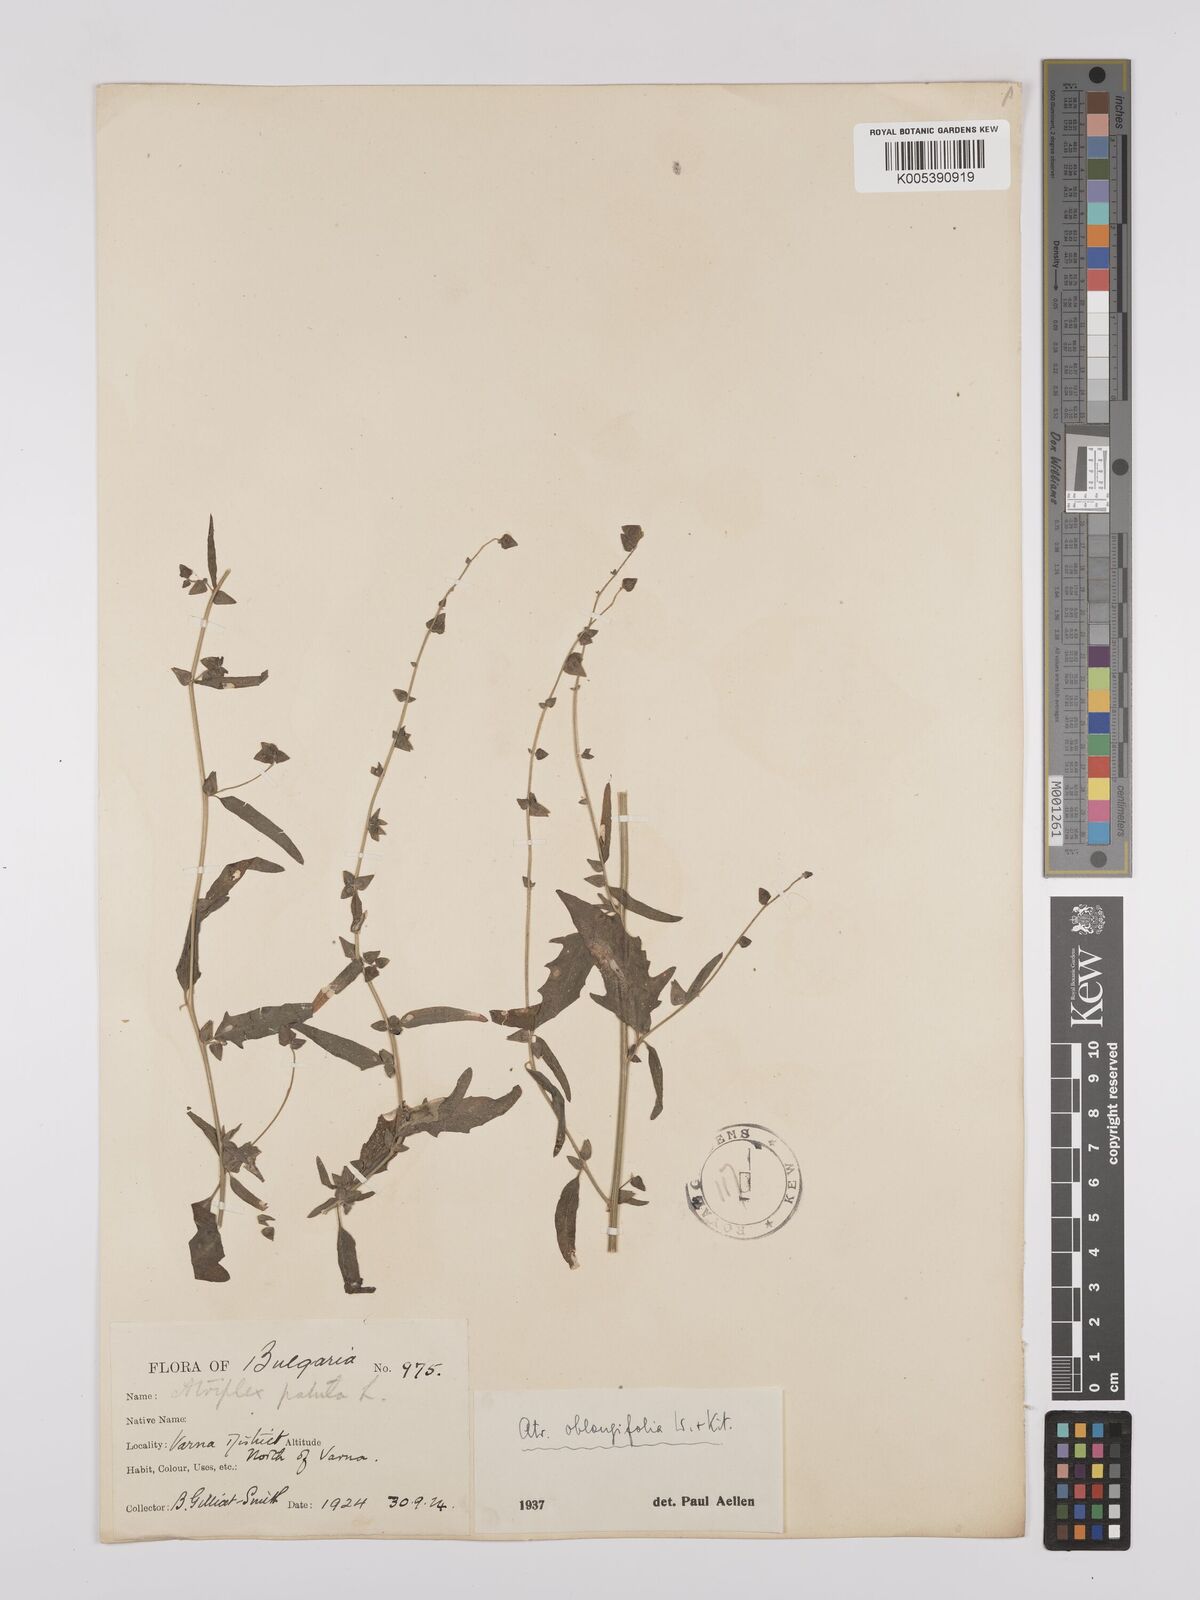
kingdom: Plantae
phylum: Tracheophyta
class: Magnoliopsida
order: Caryophyllales
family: Amaranthaceae
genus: Atriplex
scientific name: Atriplex
